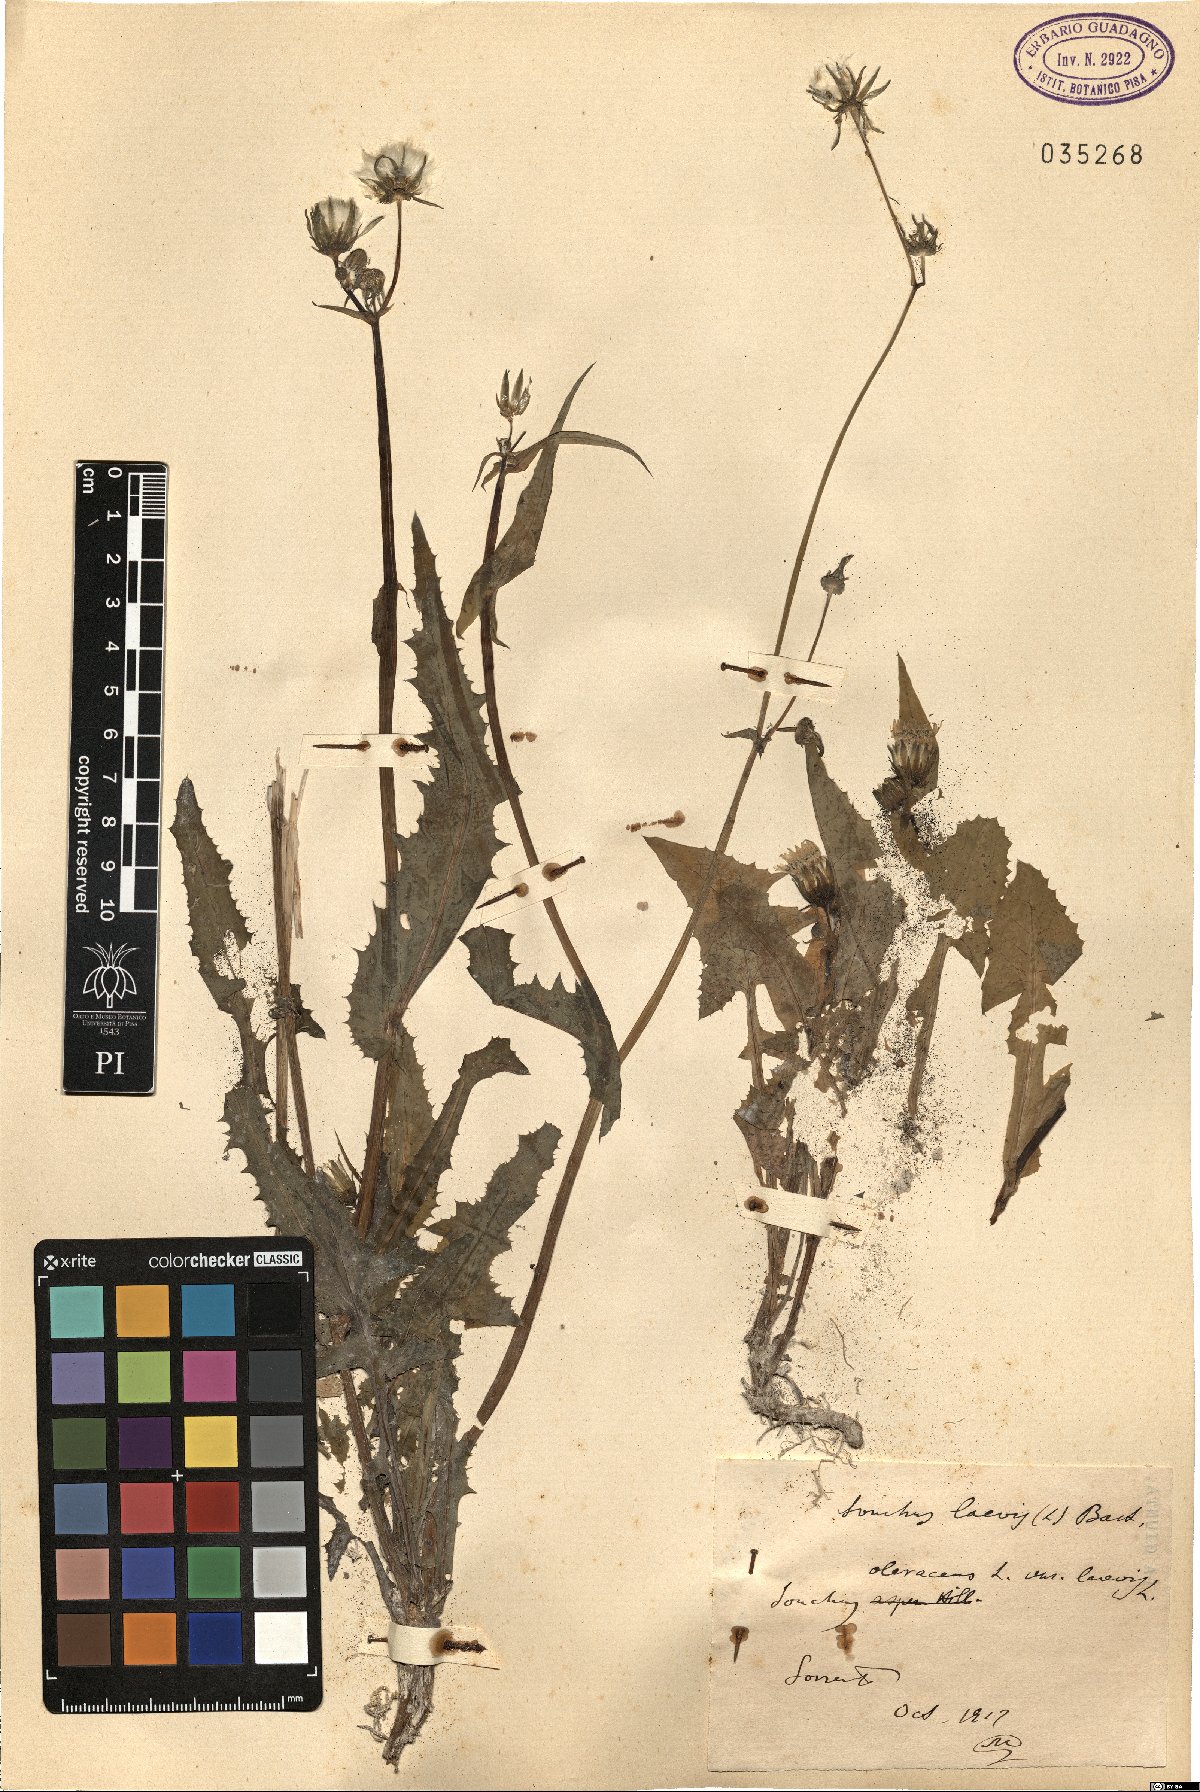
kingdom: Plantae
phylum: Tracheophyta
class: Magnoliopsida
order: Asterales
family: Asteraceae
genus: Sonchus
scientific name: Sonchus oleraceus
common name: Common sowthistle
